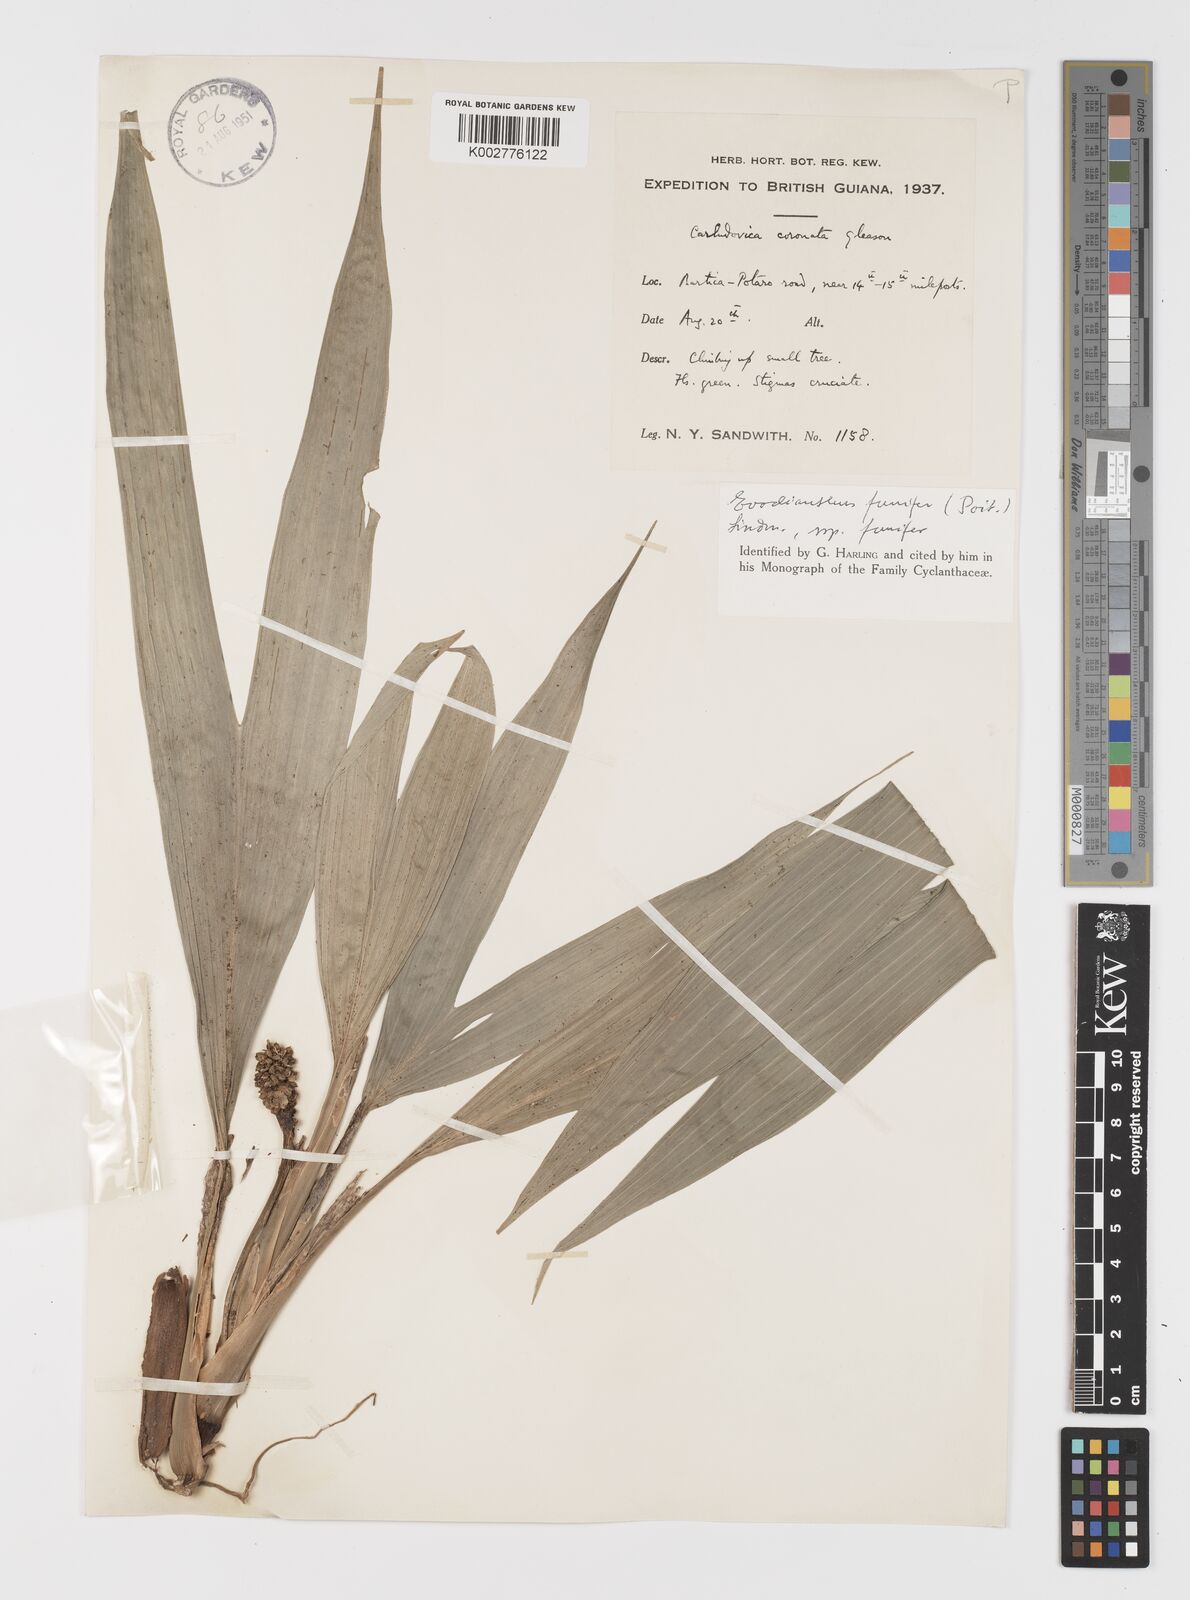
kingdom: Plantae
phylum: Tracheophyta
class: Liliopsida
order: Pandanales
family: Cyclanthaceae
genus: Evodianthus
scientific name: Evodianthus funifer
